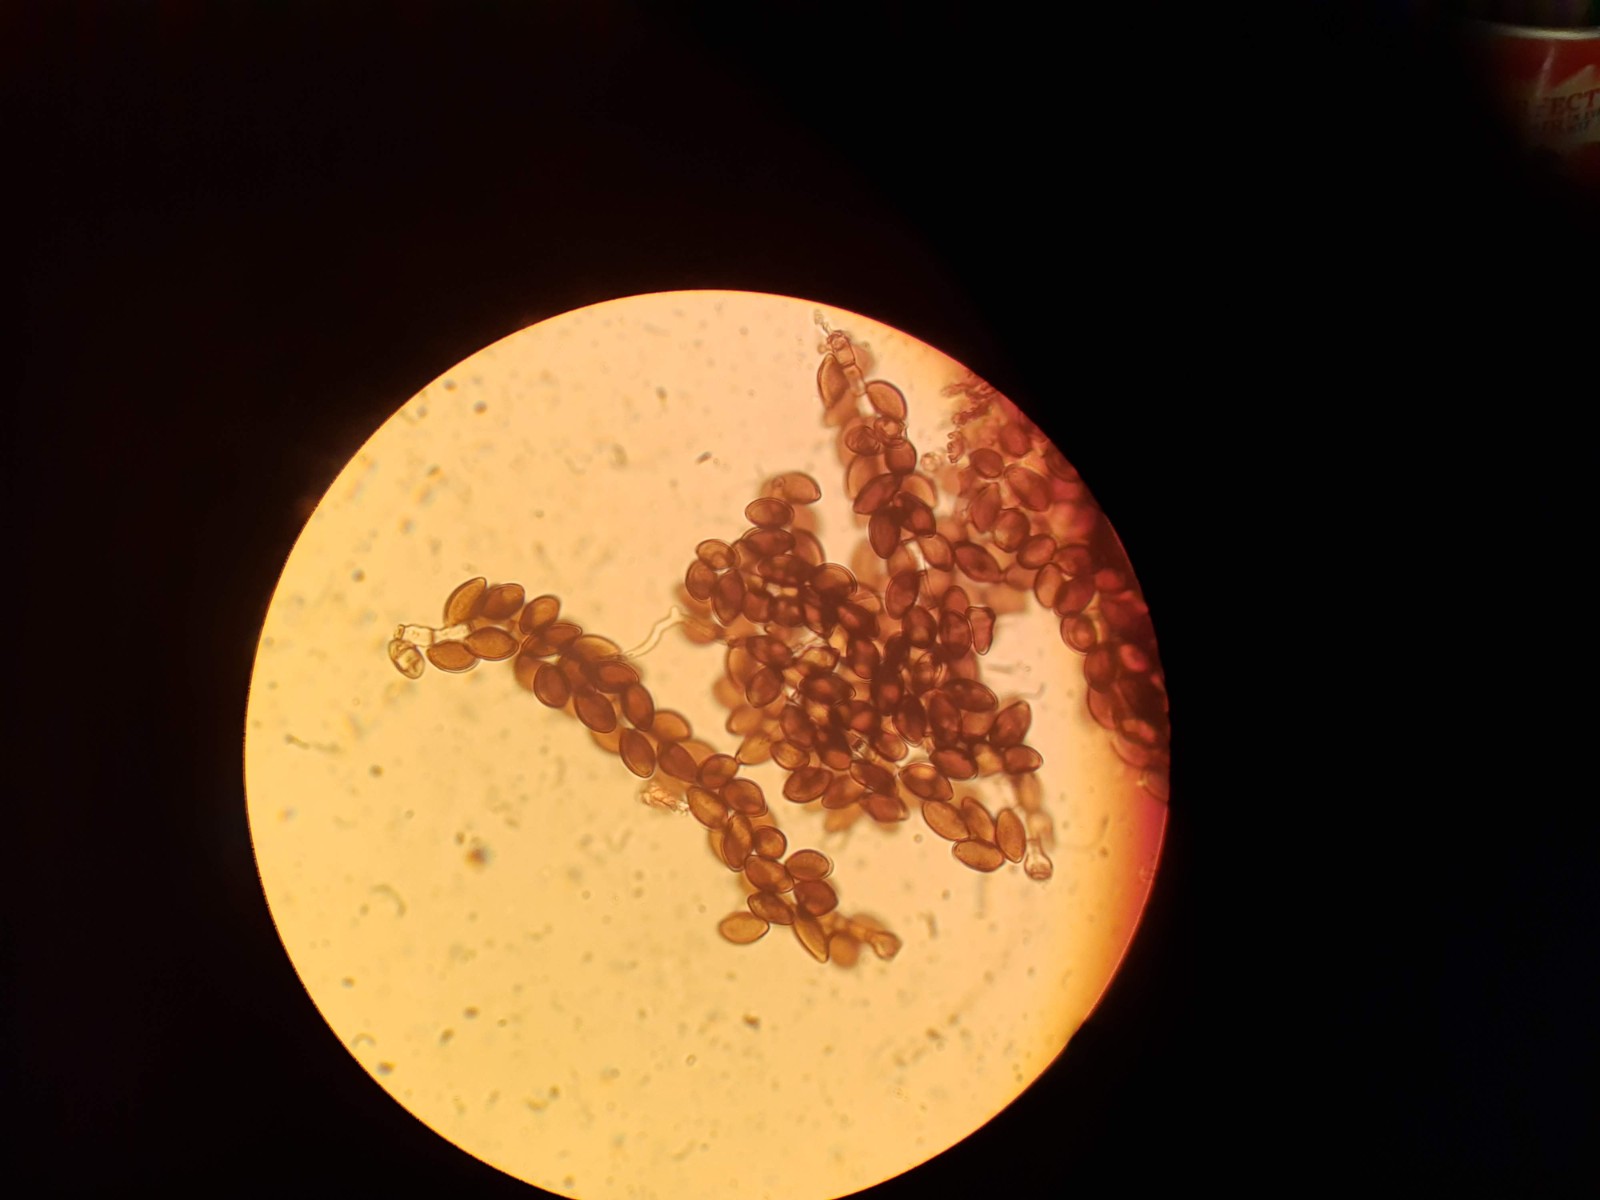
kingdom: Fungi
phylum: Ascomycota
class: Sordariomycetes
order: Xylariales
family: Apiosporaceae
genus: Arthrinium
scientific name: Arthrinium sporophleum
